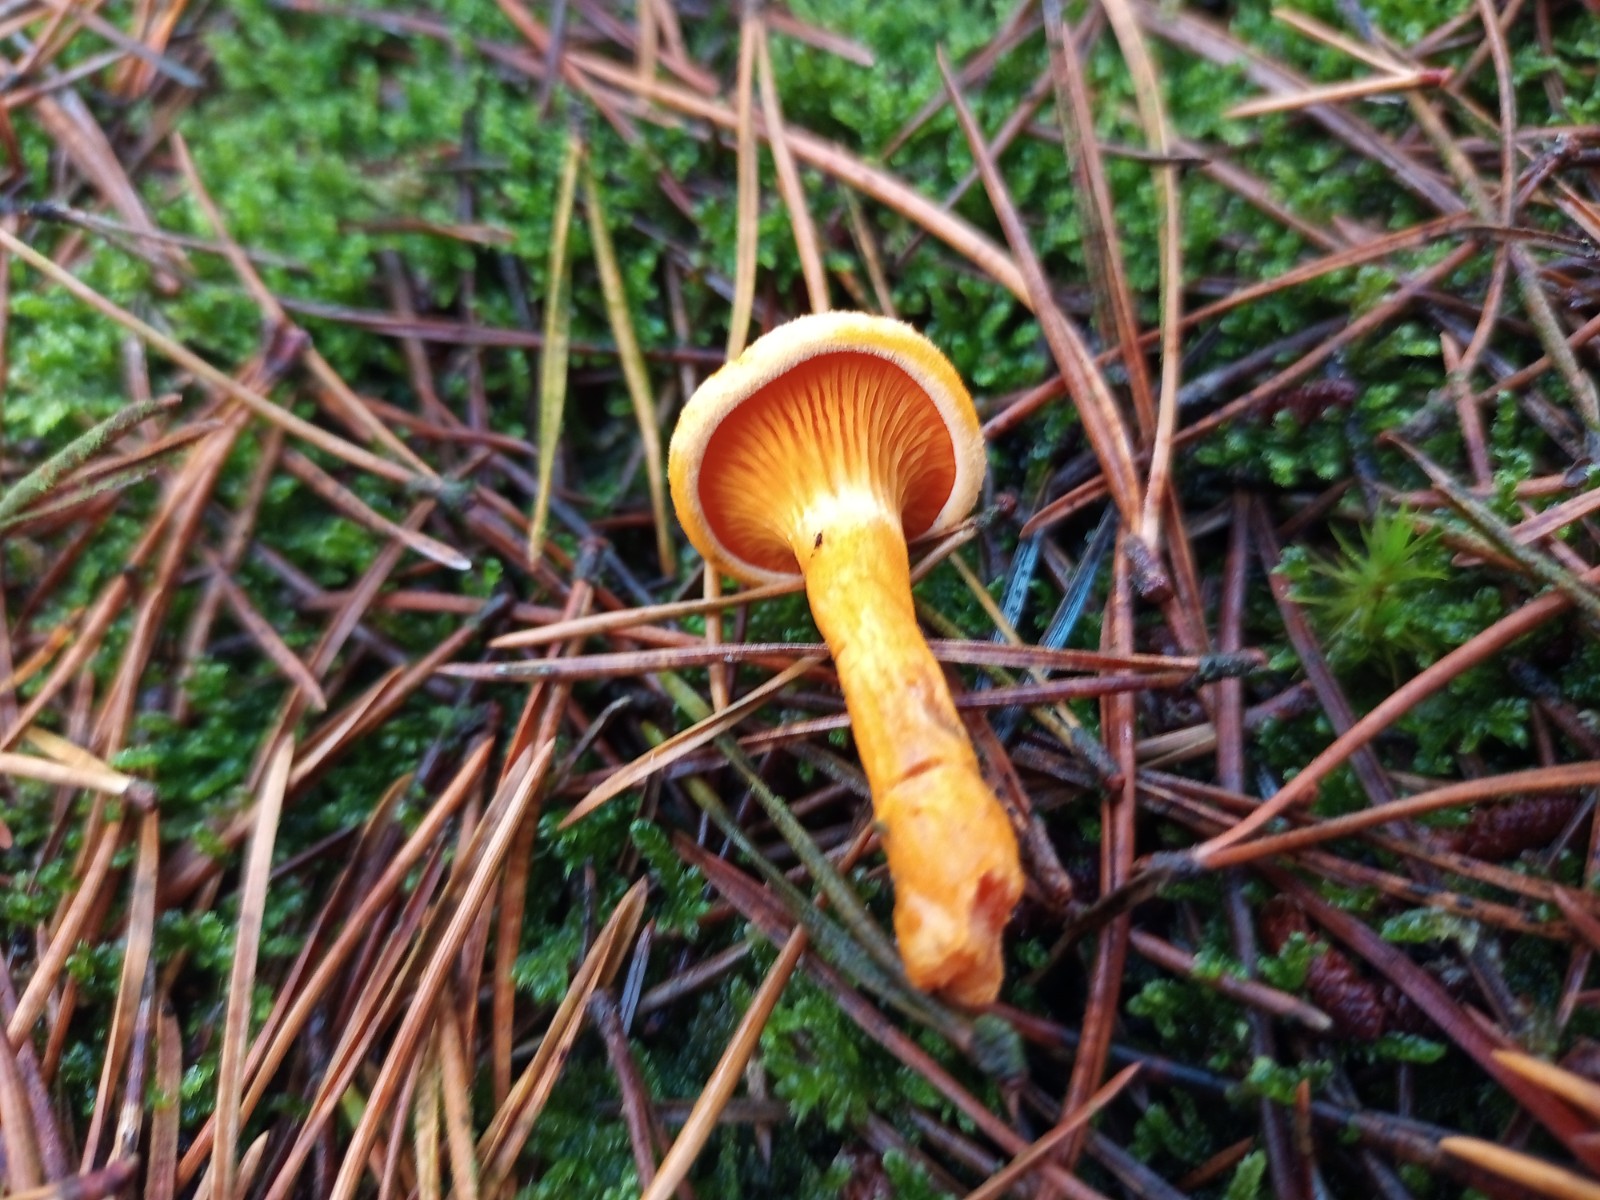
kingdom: Fungi
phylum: Basidiomycota
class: Agaricomycetes
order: Boletales
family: Hygrophoropsidaceae
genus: Hygrophoropsis
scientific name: Hygrophoropsis aurantiaca
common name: almindelig orangekantarel
